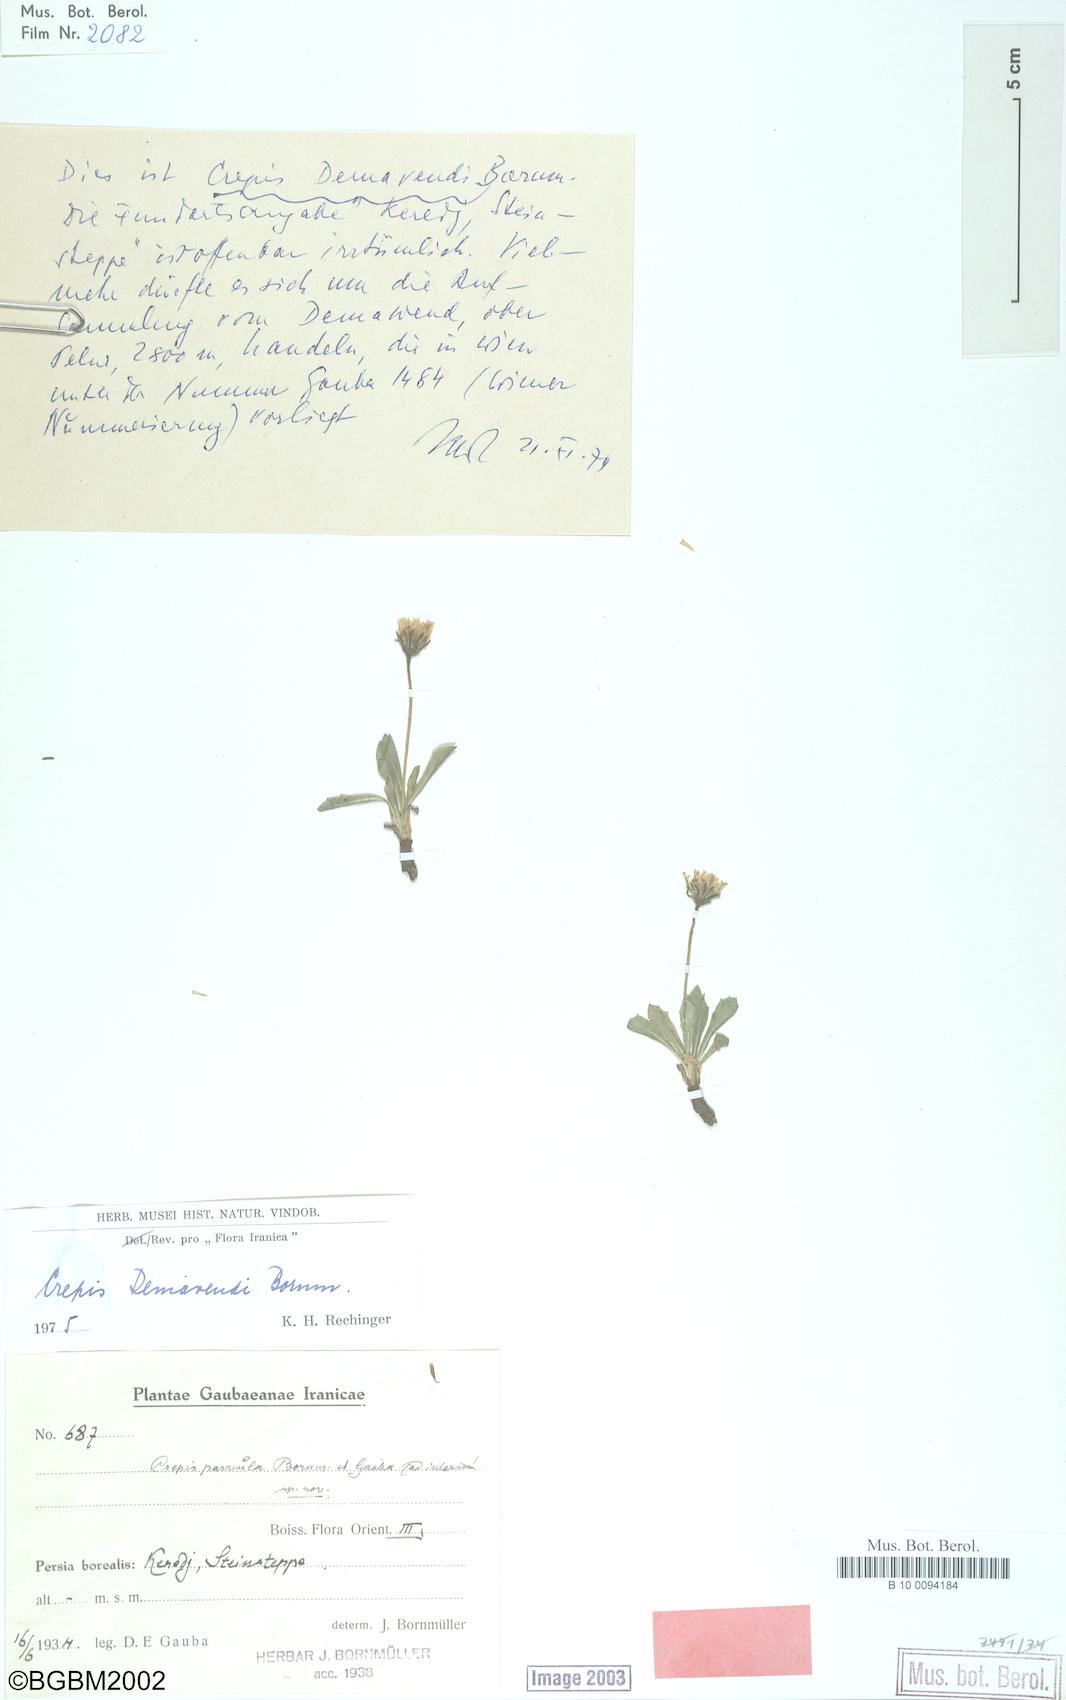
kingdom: Plantae
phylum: Tracheophyta
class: Magnoliopsida
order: Asterales
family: Asteraceae
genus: Crepis
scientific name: Crepis demavendi
